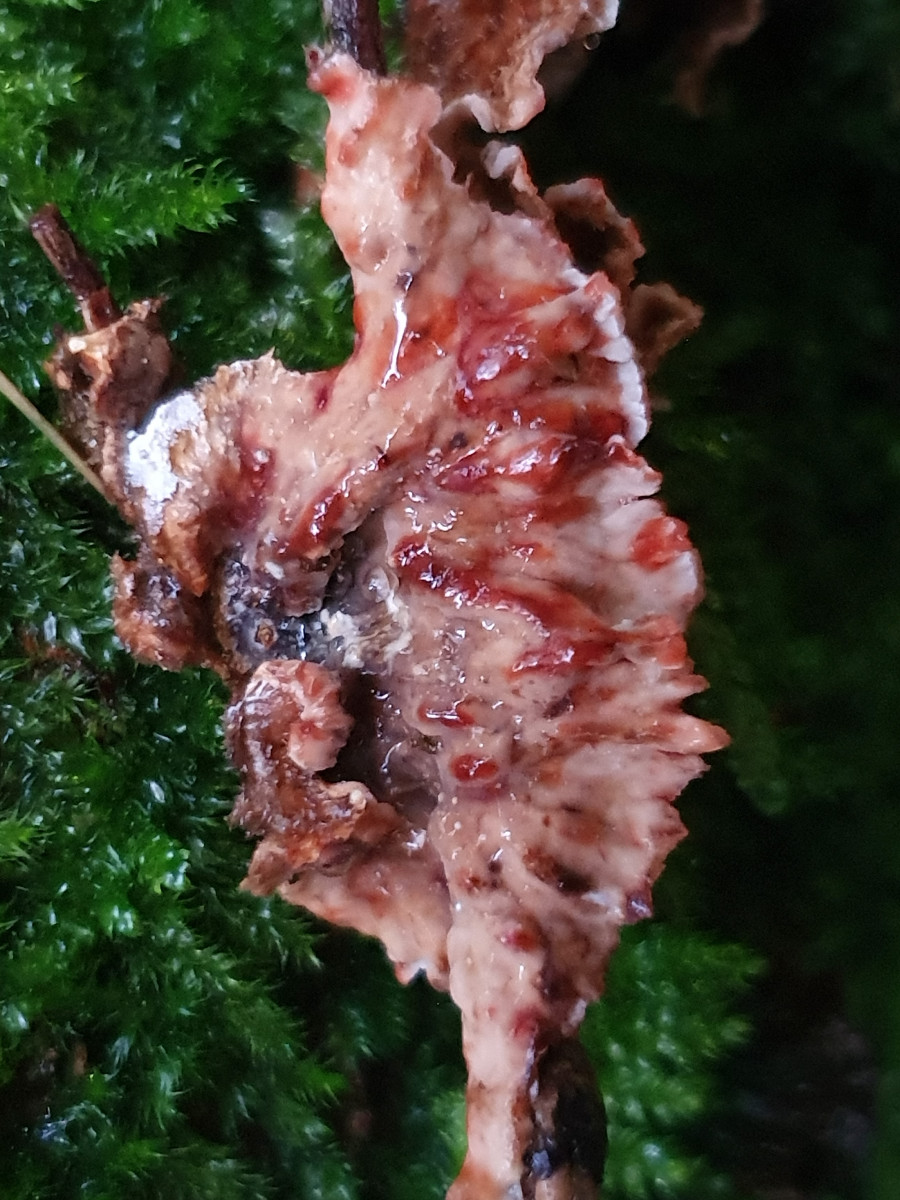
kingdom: Fungi
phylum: Basidiomycota
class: Agaricomycetes
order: Russulales
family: Stereaceae
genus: Stereum
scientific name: Stereum sanguinolentum
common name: blødende lædersvamp
